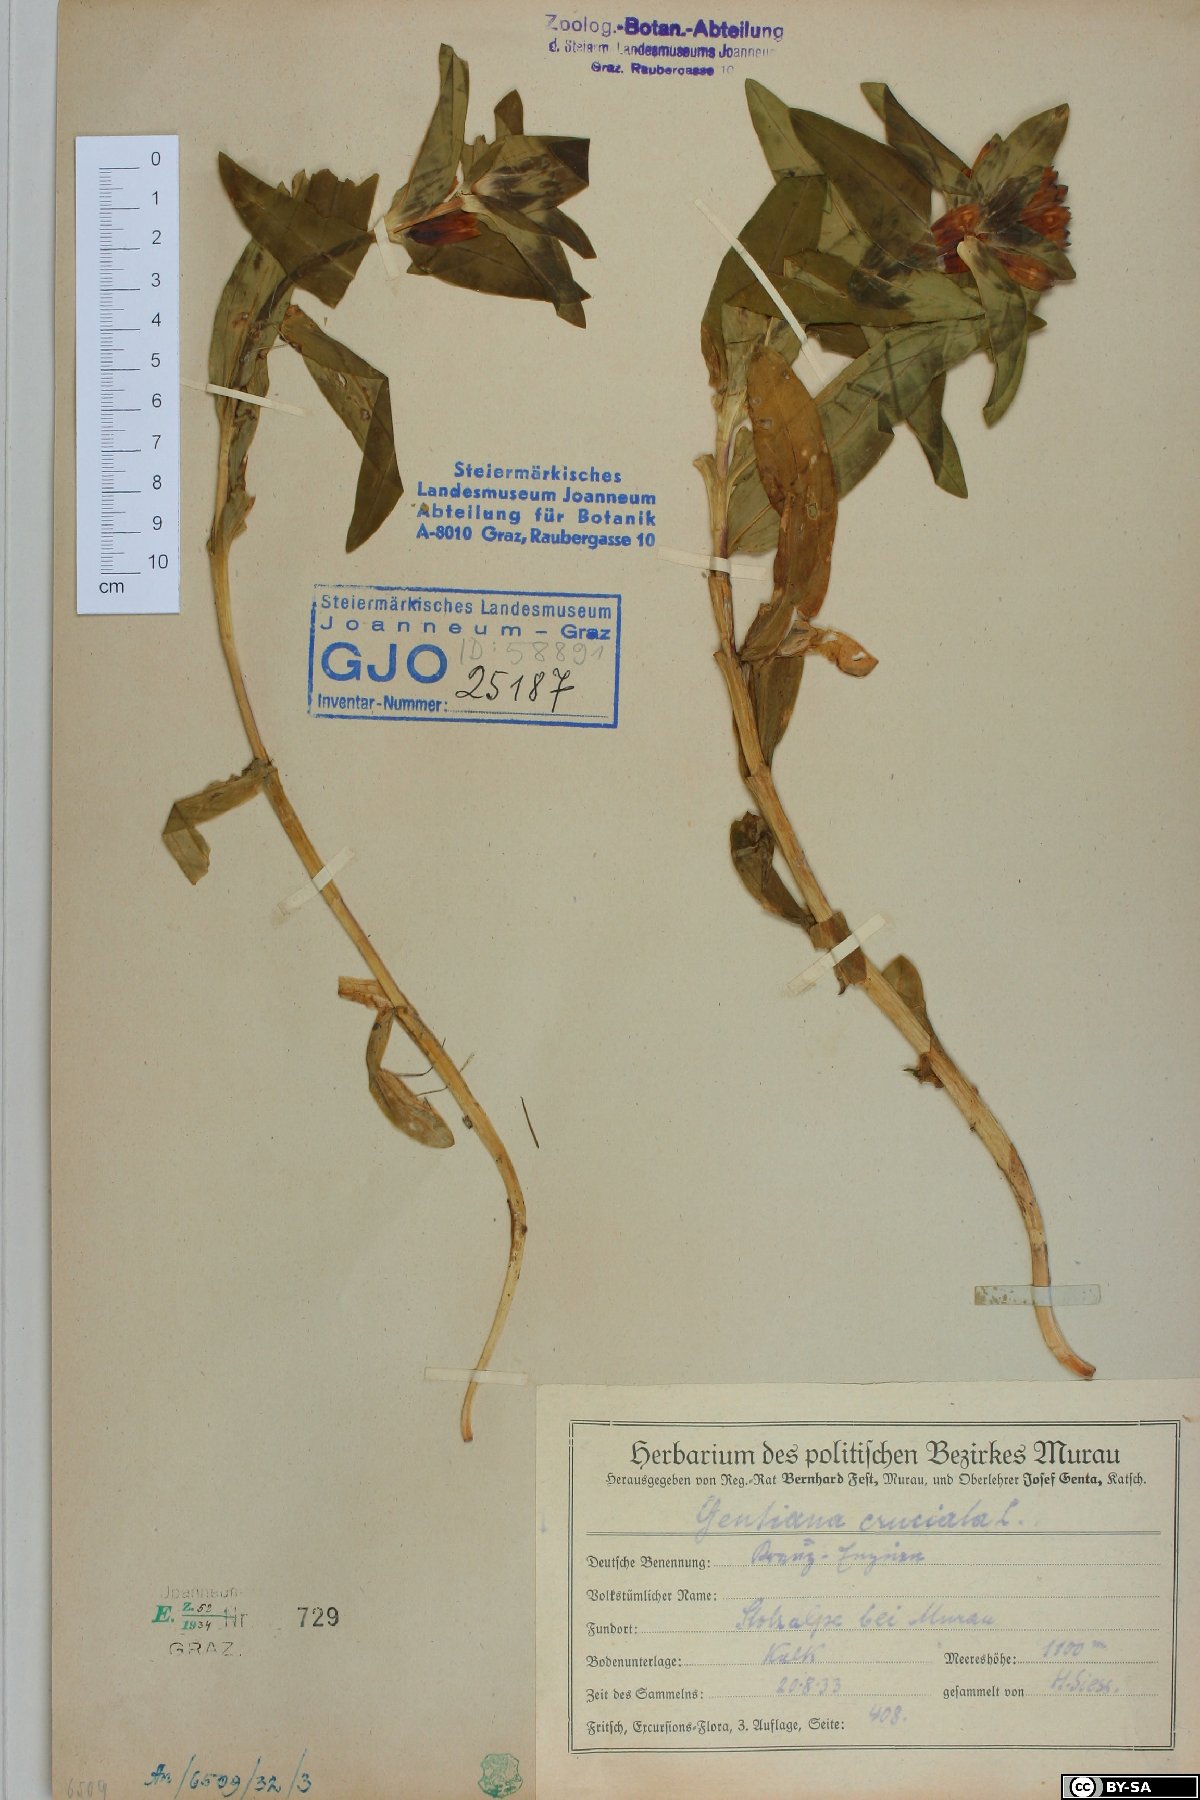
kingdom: Plantae
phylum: Tracheophyta
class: Magnoliopsida
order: Gentianales
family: Gentianaceae
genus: Gentiana
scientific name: Gentiana cruciata
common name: Cross gentian
